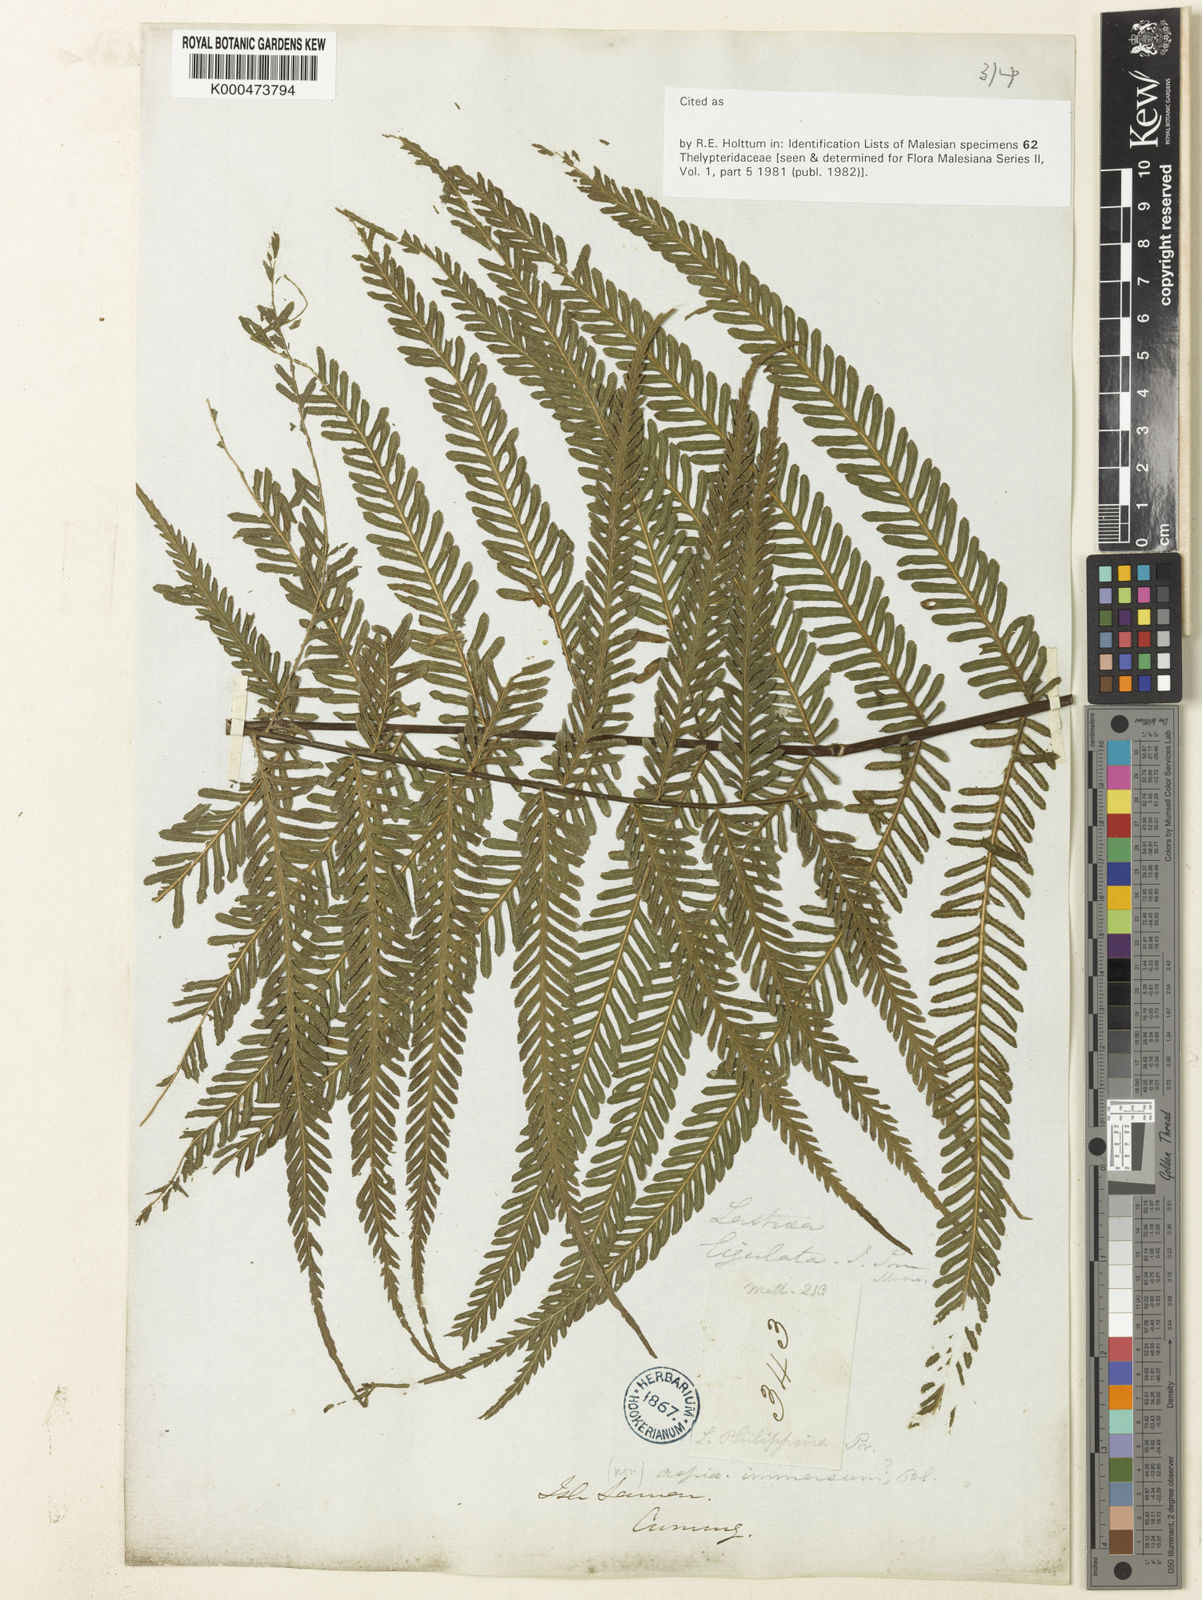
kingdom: Plantae
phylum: Tracheophyta
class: Polypodiopsida
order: Polypodiales
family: Thelypteridaceae
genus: Plesioneuron
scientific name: Plesioneuron ligulatum
